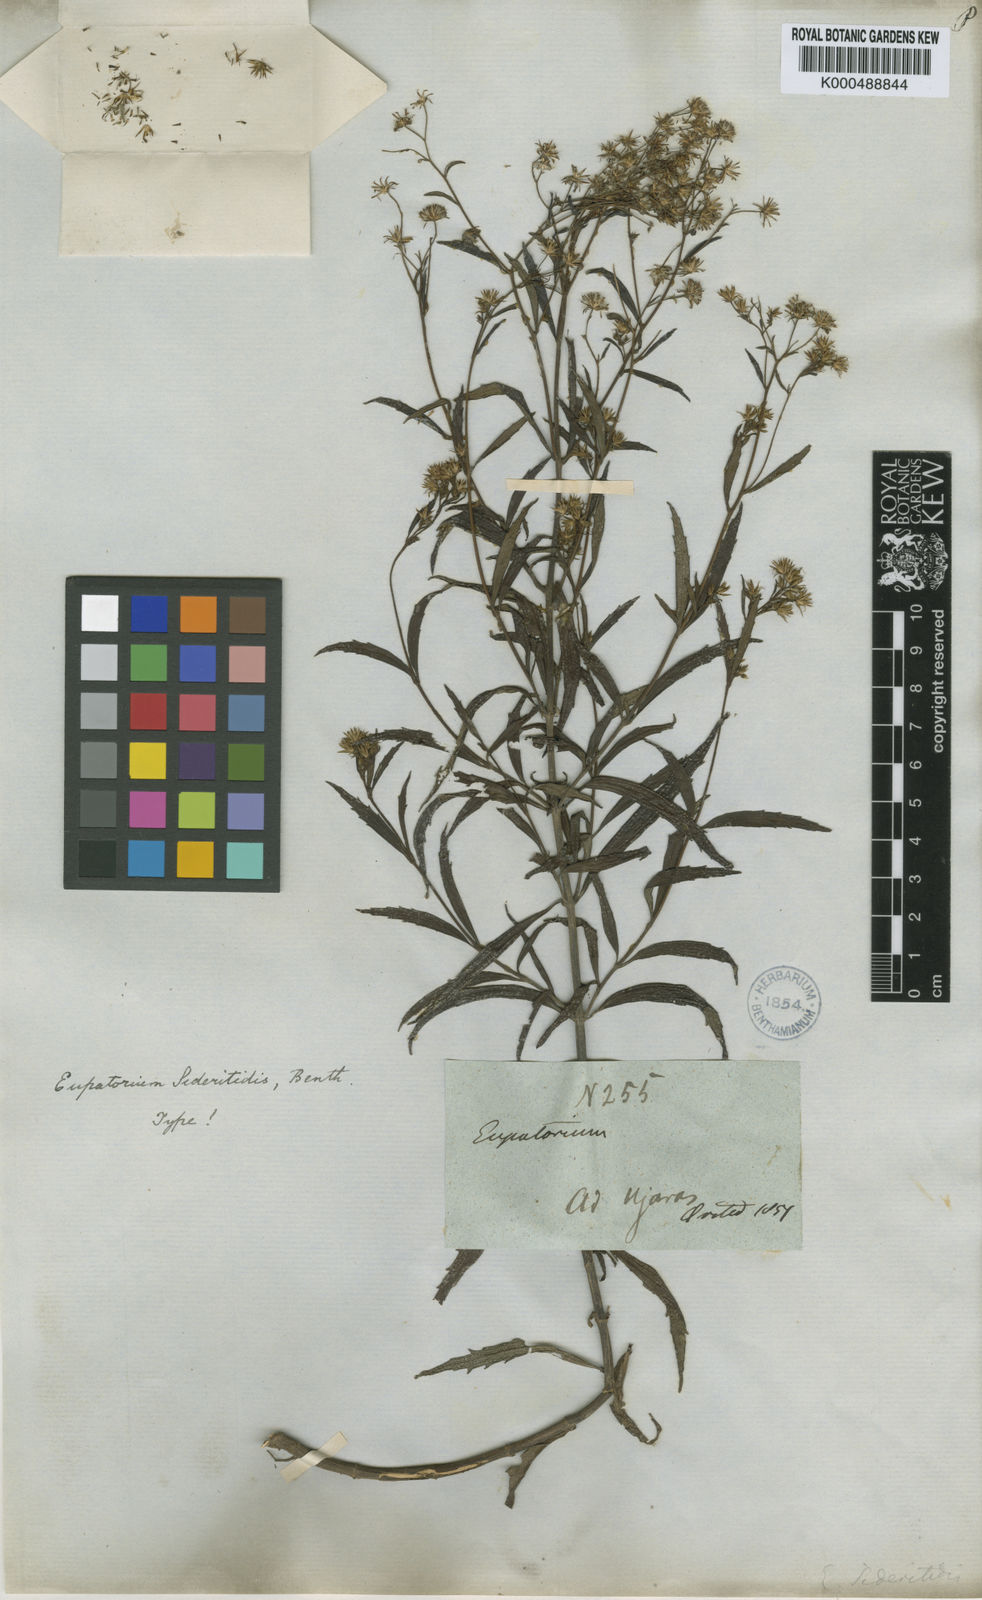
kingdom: Plantae
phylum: Tracheophyta
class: Magnoliopsida
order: Asterales
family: Asteraceae
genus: Fleischmannia
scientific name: Fleischmannia
